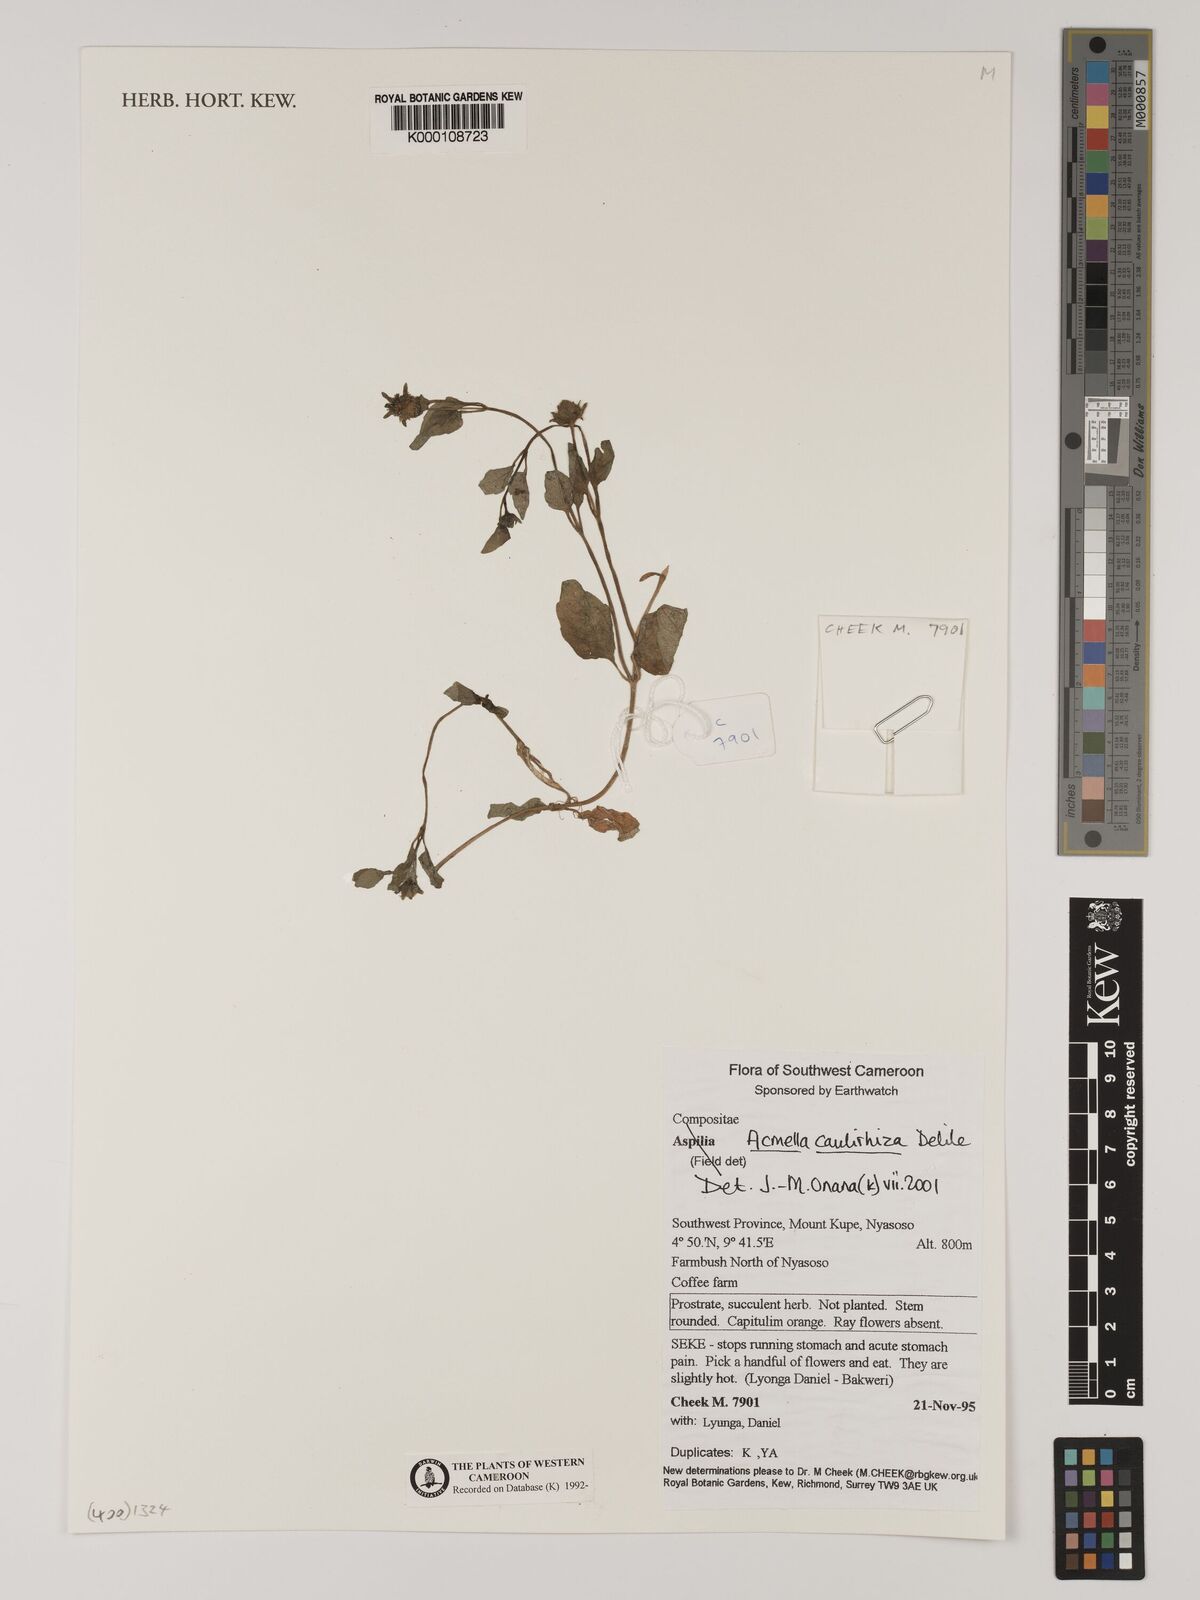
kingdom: Plantae
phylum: Tracheophyta
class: Magnoliopsida
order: Asterales
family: Asteraceae
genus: Acmella
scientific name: Acmella caulirhiza
